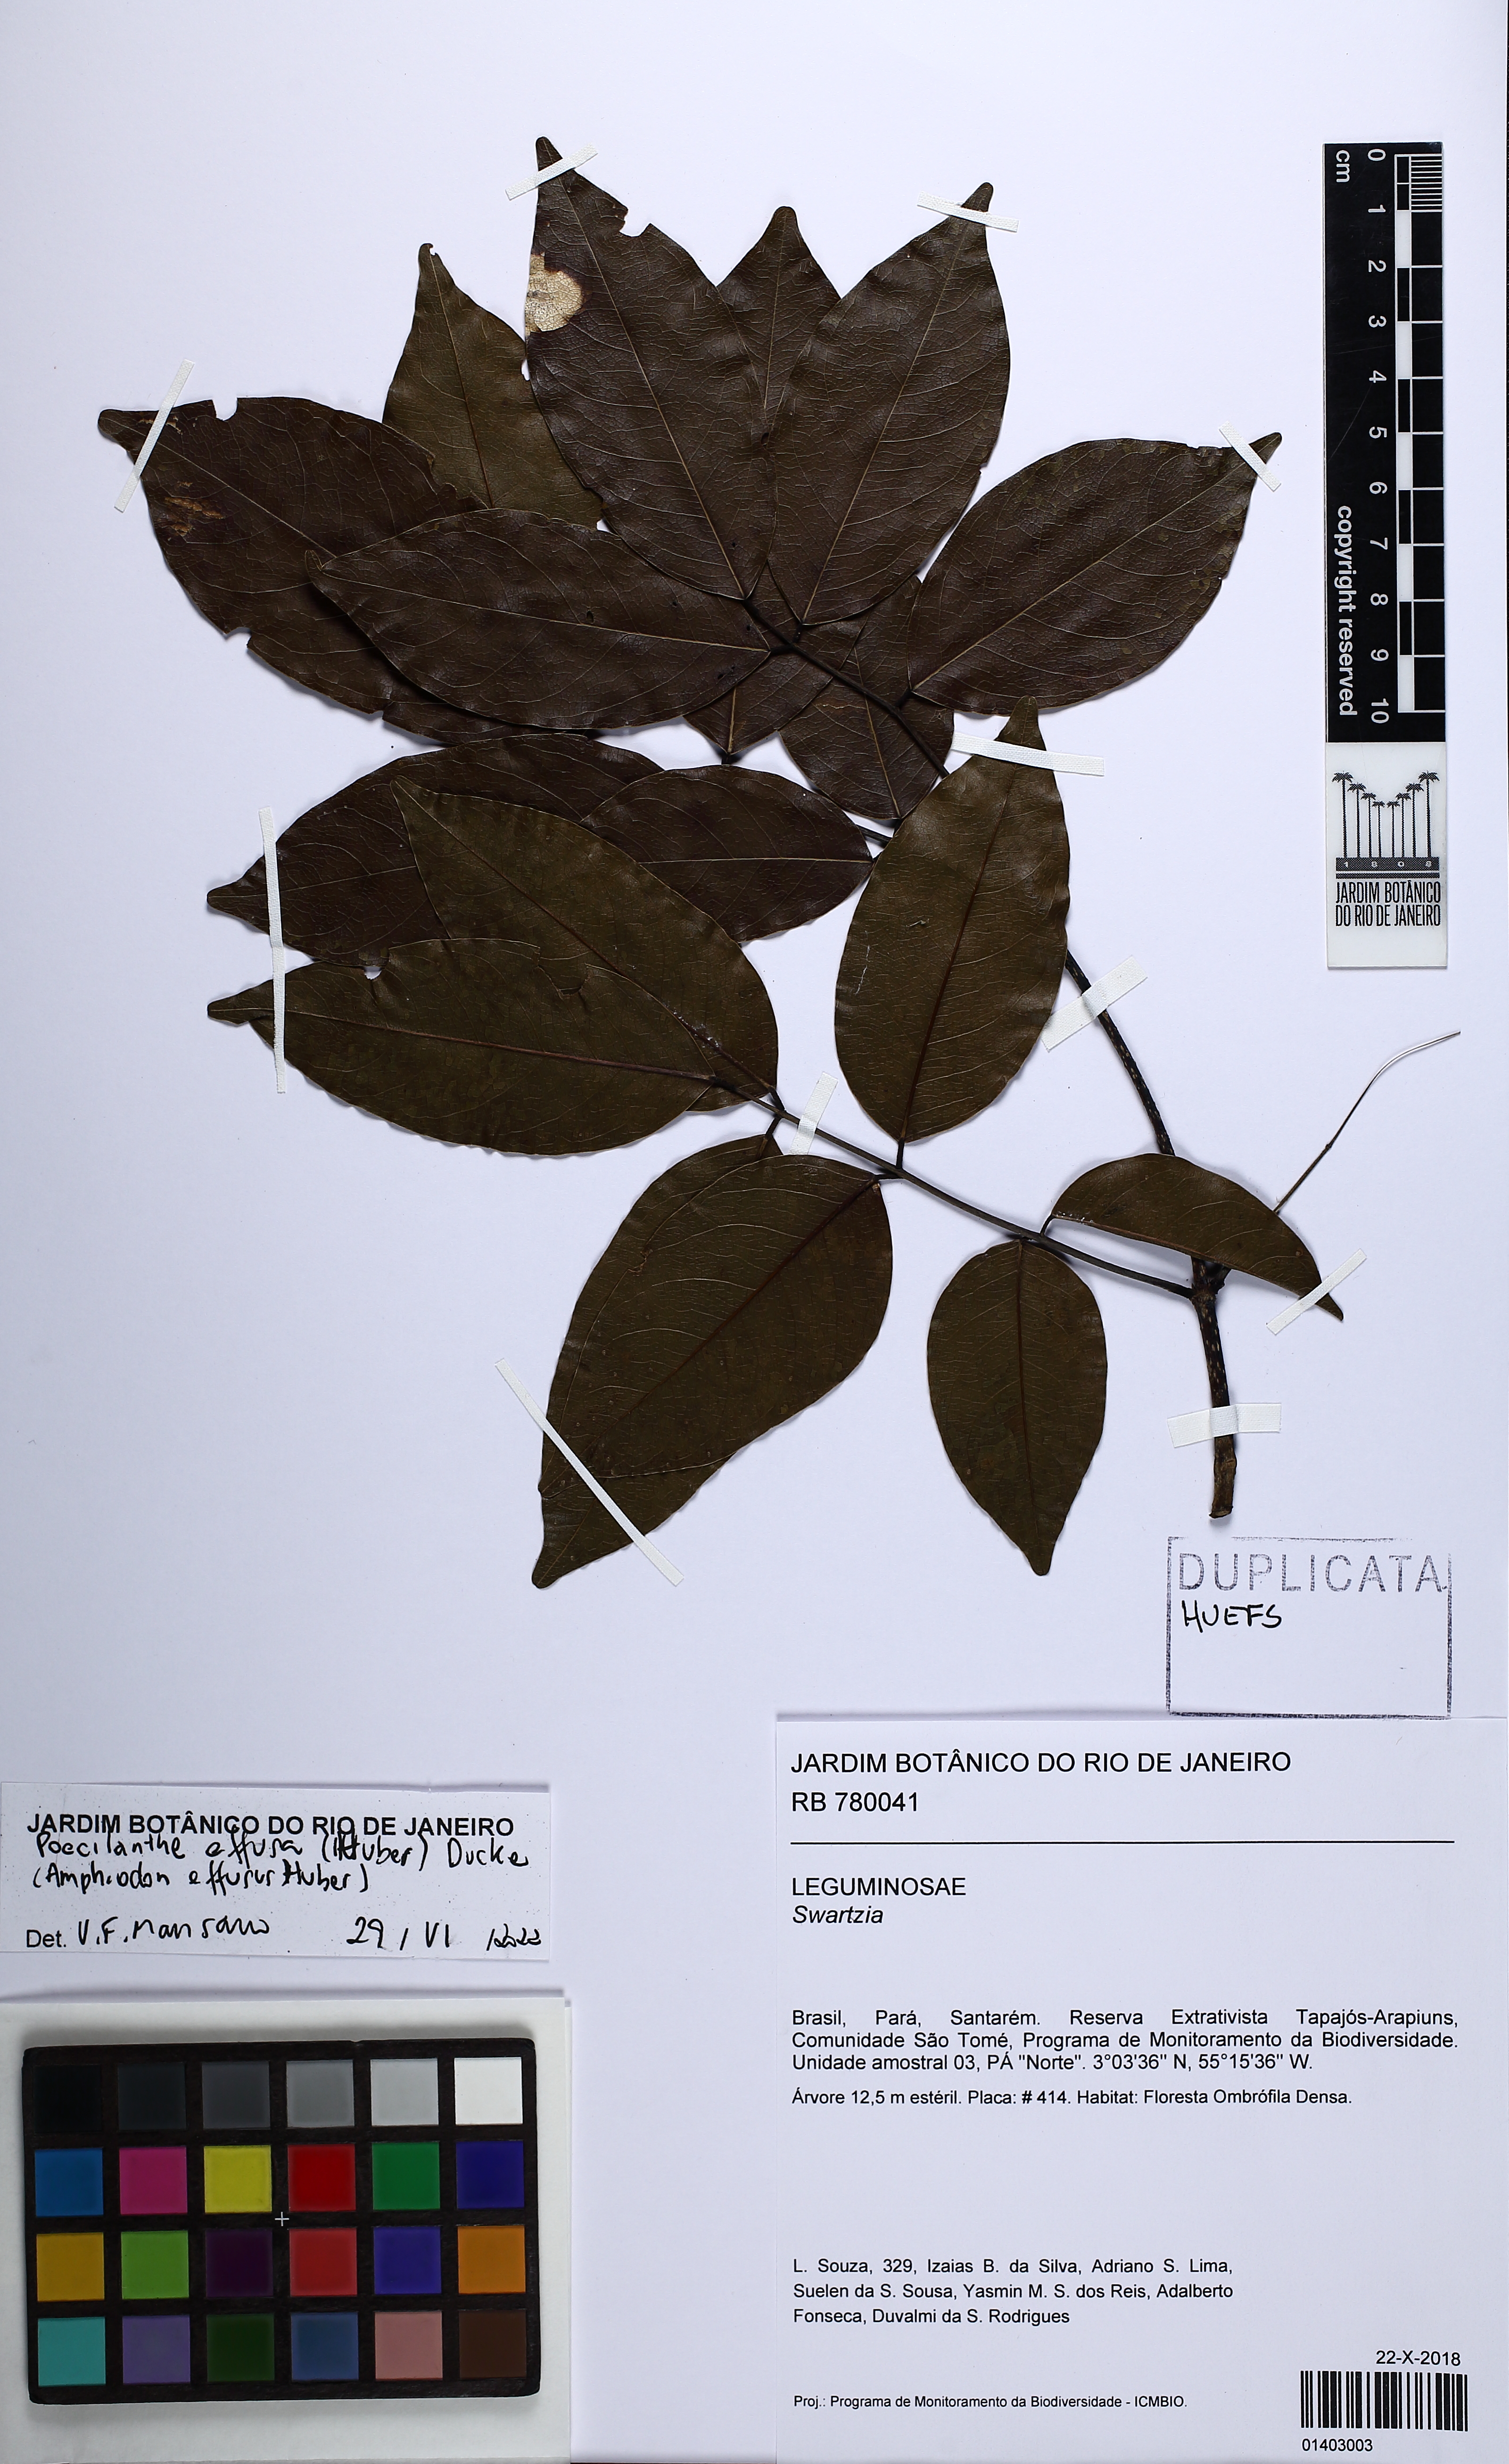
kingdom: Plantae
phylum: Tracheophyta
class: Magnoliopsida
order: Fabales
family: Fabaceae
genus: Amphiodon
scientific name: Amphiodon effusus
